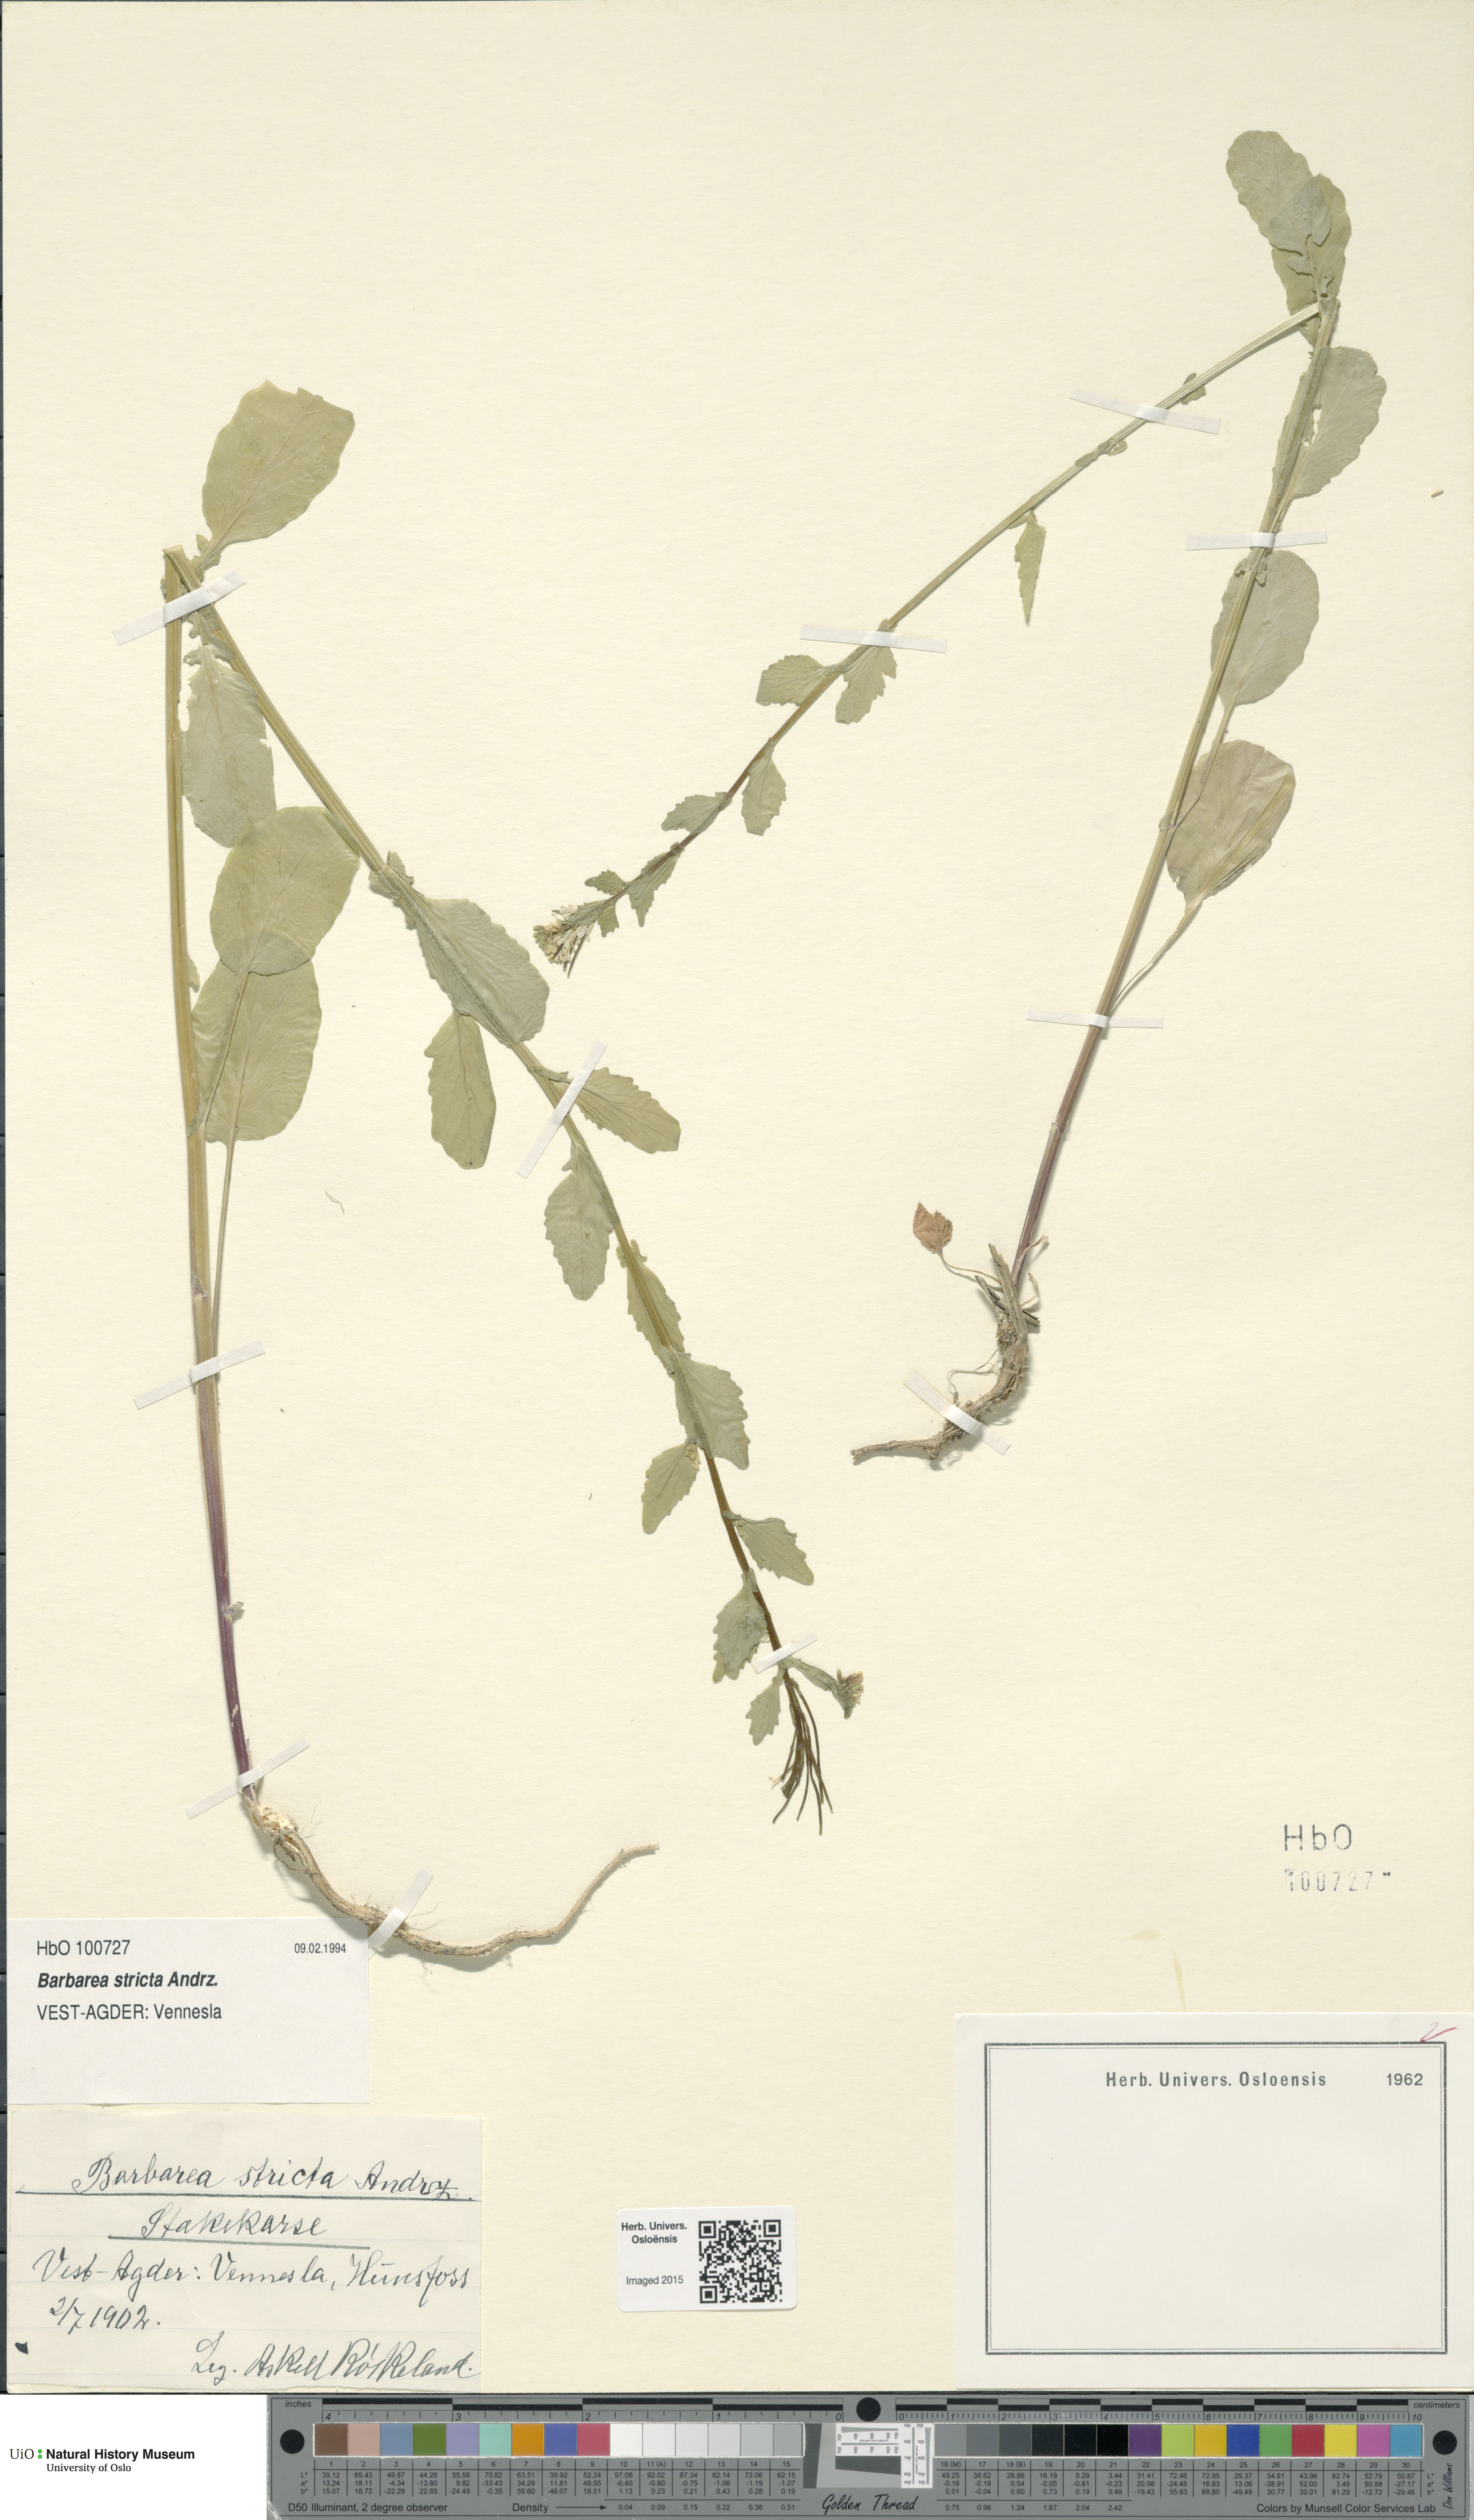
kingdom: Plantae
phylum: Tracheophyta
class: Magnoliopsida
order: Brassicales
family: Brassicaceae
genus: Barbarea
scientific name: Barbarea stricta
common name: Small-flowered winter-cress
